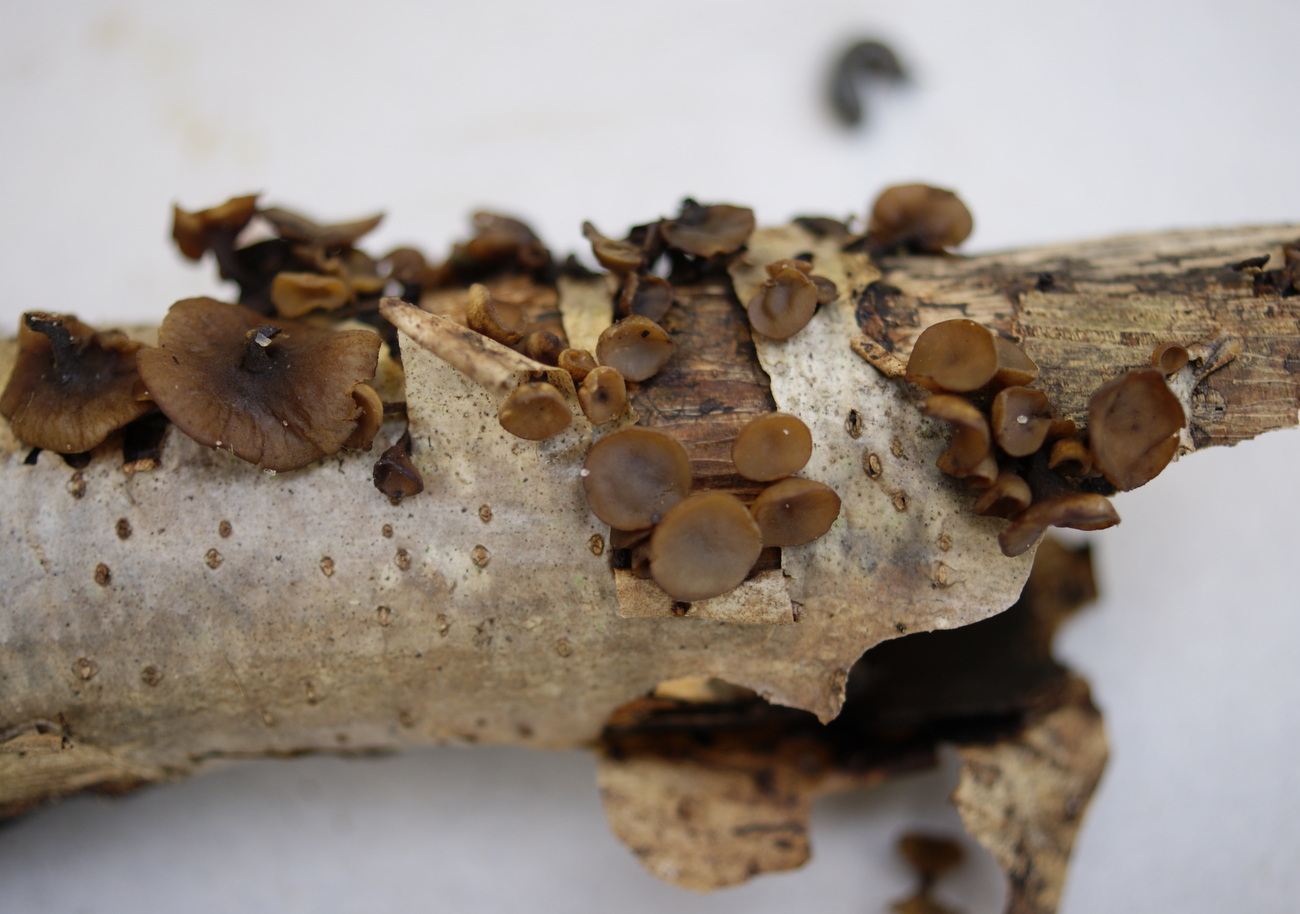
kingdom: Fungi
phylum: Ascomycota
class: Leotiomycetes
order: Helotiales
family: Rutstroemiaceae
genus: Rutstroemia
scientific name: Rutstroemia firma
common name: gren-brunskive
